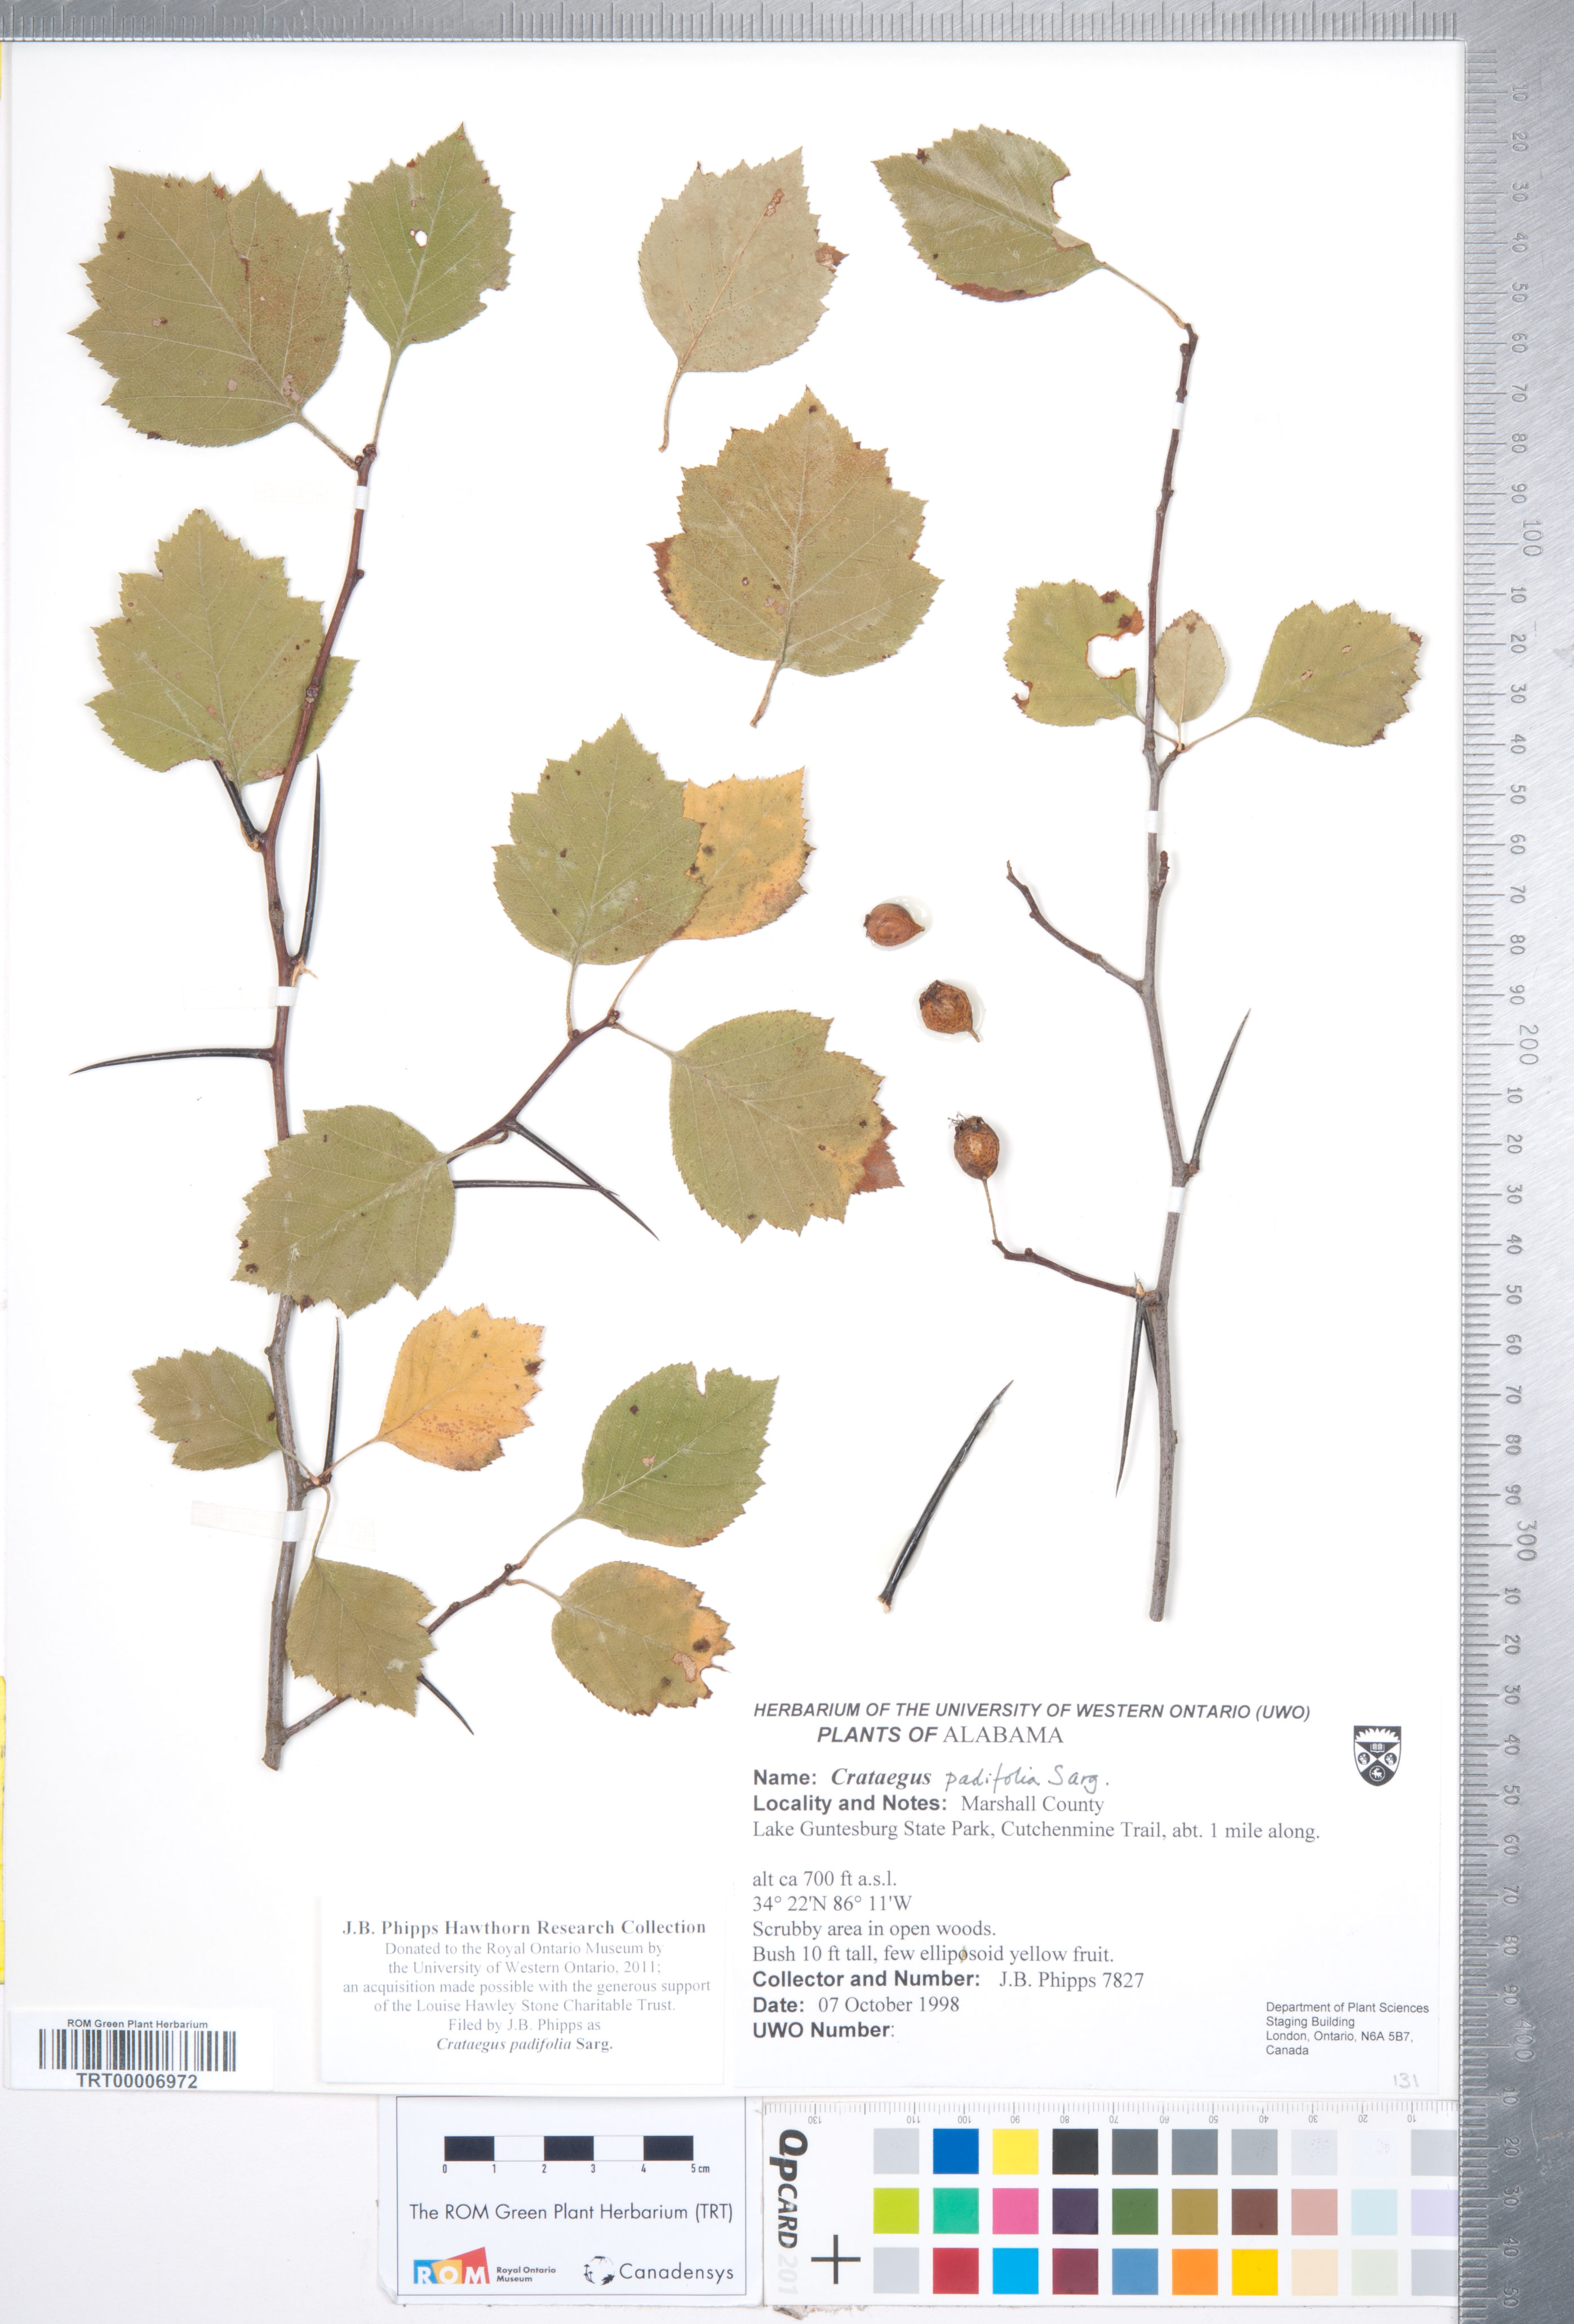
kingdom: Plantae
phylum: Tracheophyta
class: Magnoliopsida
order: Rosales
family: Rosaceae
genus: Crataegus
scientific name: Crataegus padifolia
